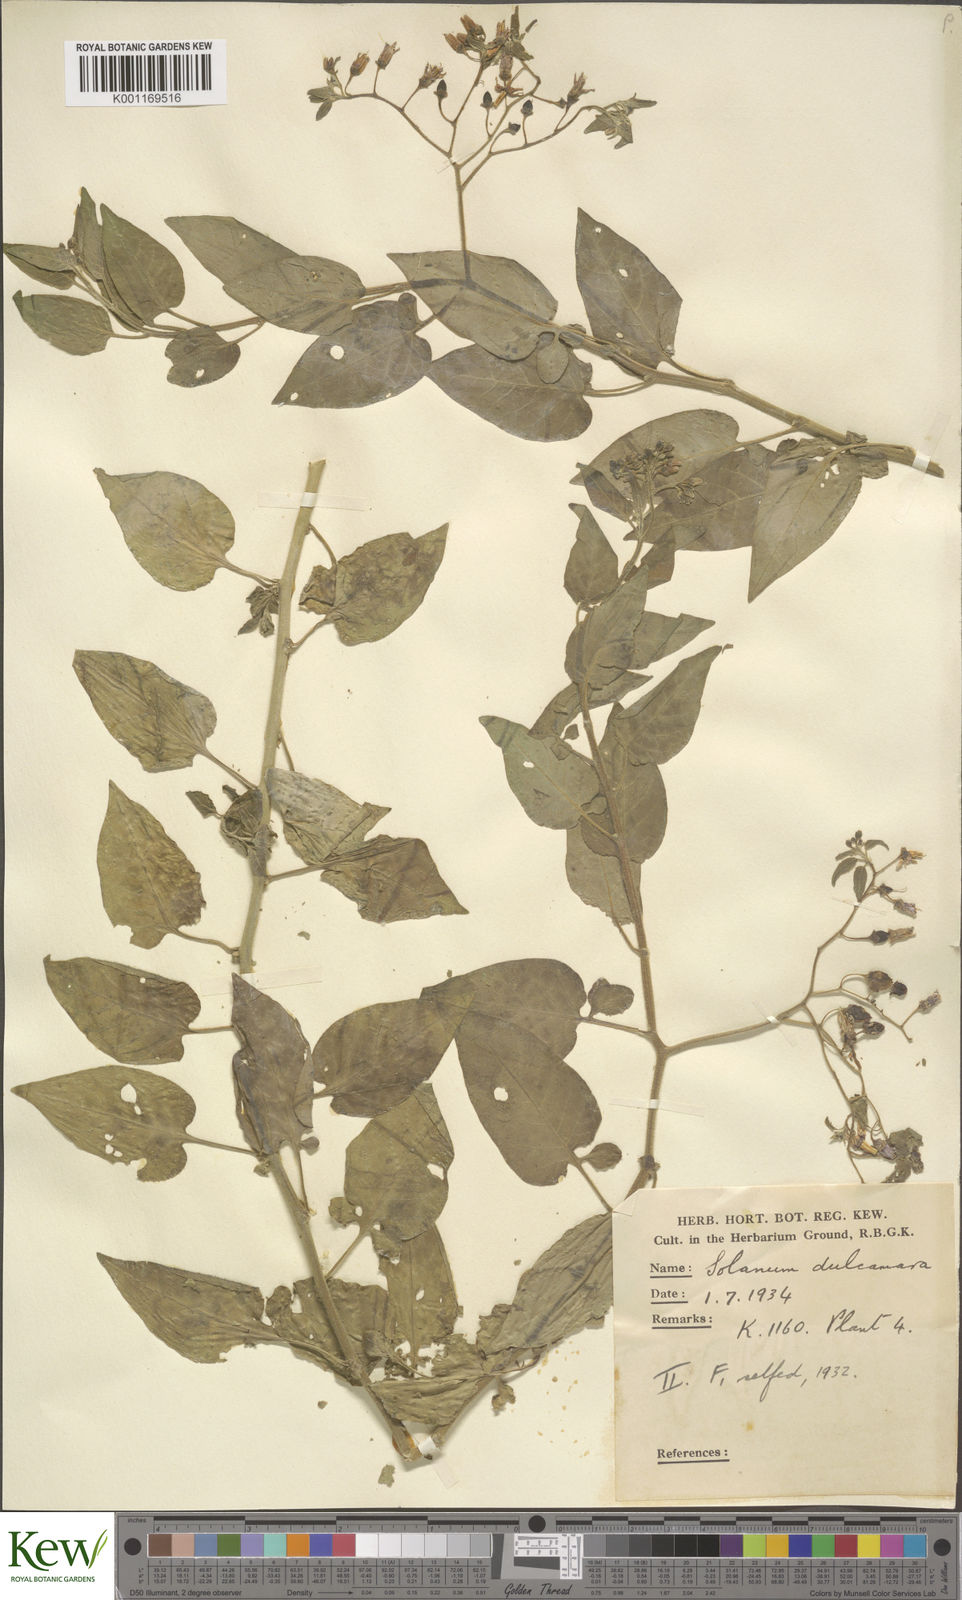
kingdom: Plantae
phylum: Tracheophyta
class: Magnoliopsida
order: Solanales
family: Solanaceae
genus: Solanum
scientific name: Solanum dulcamara
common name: Climbing nightshade
